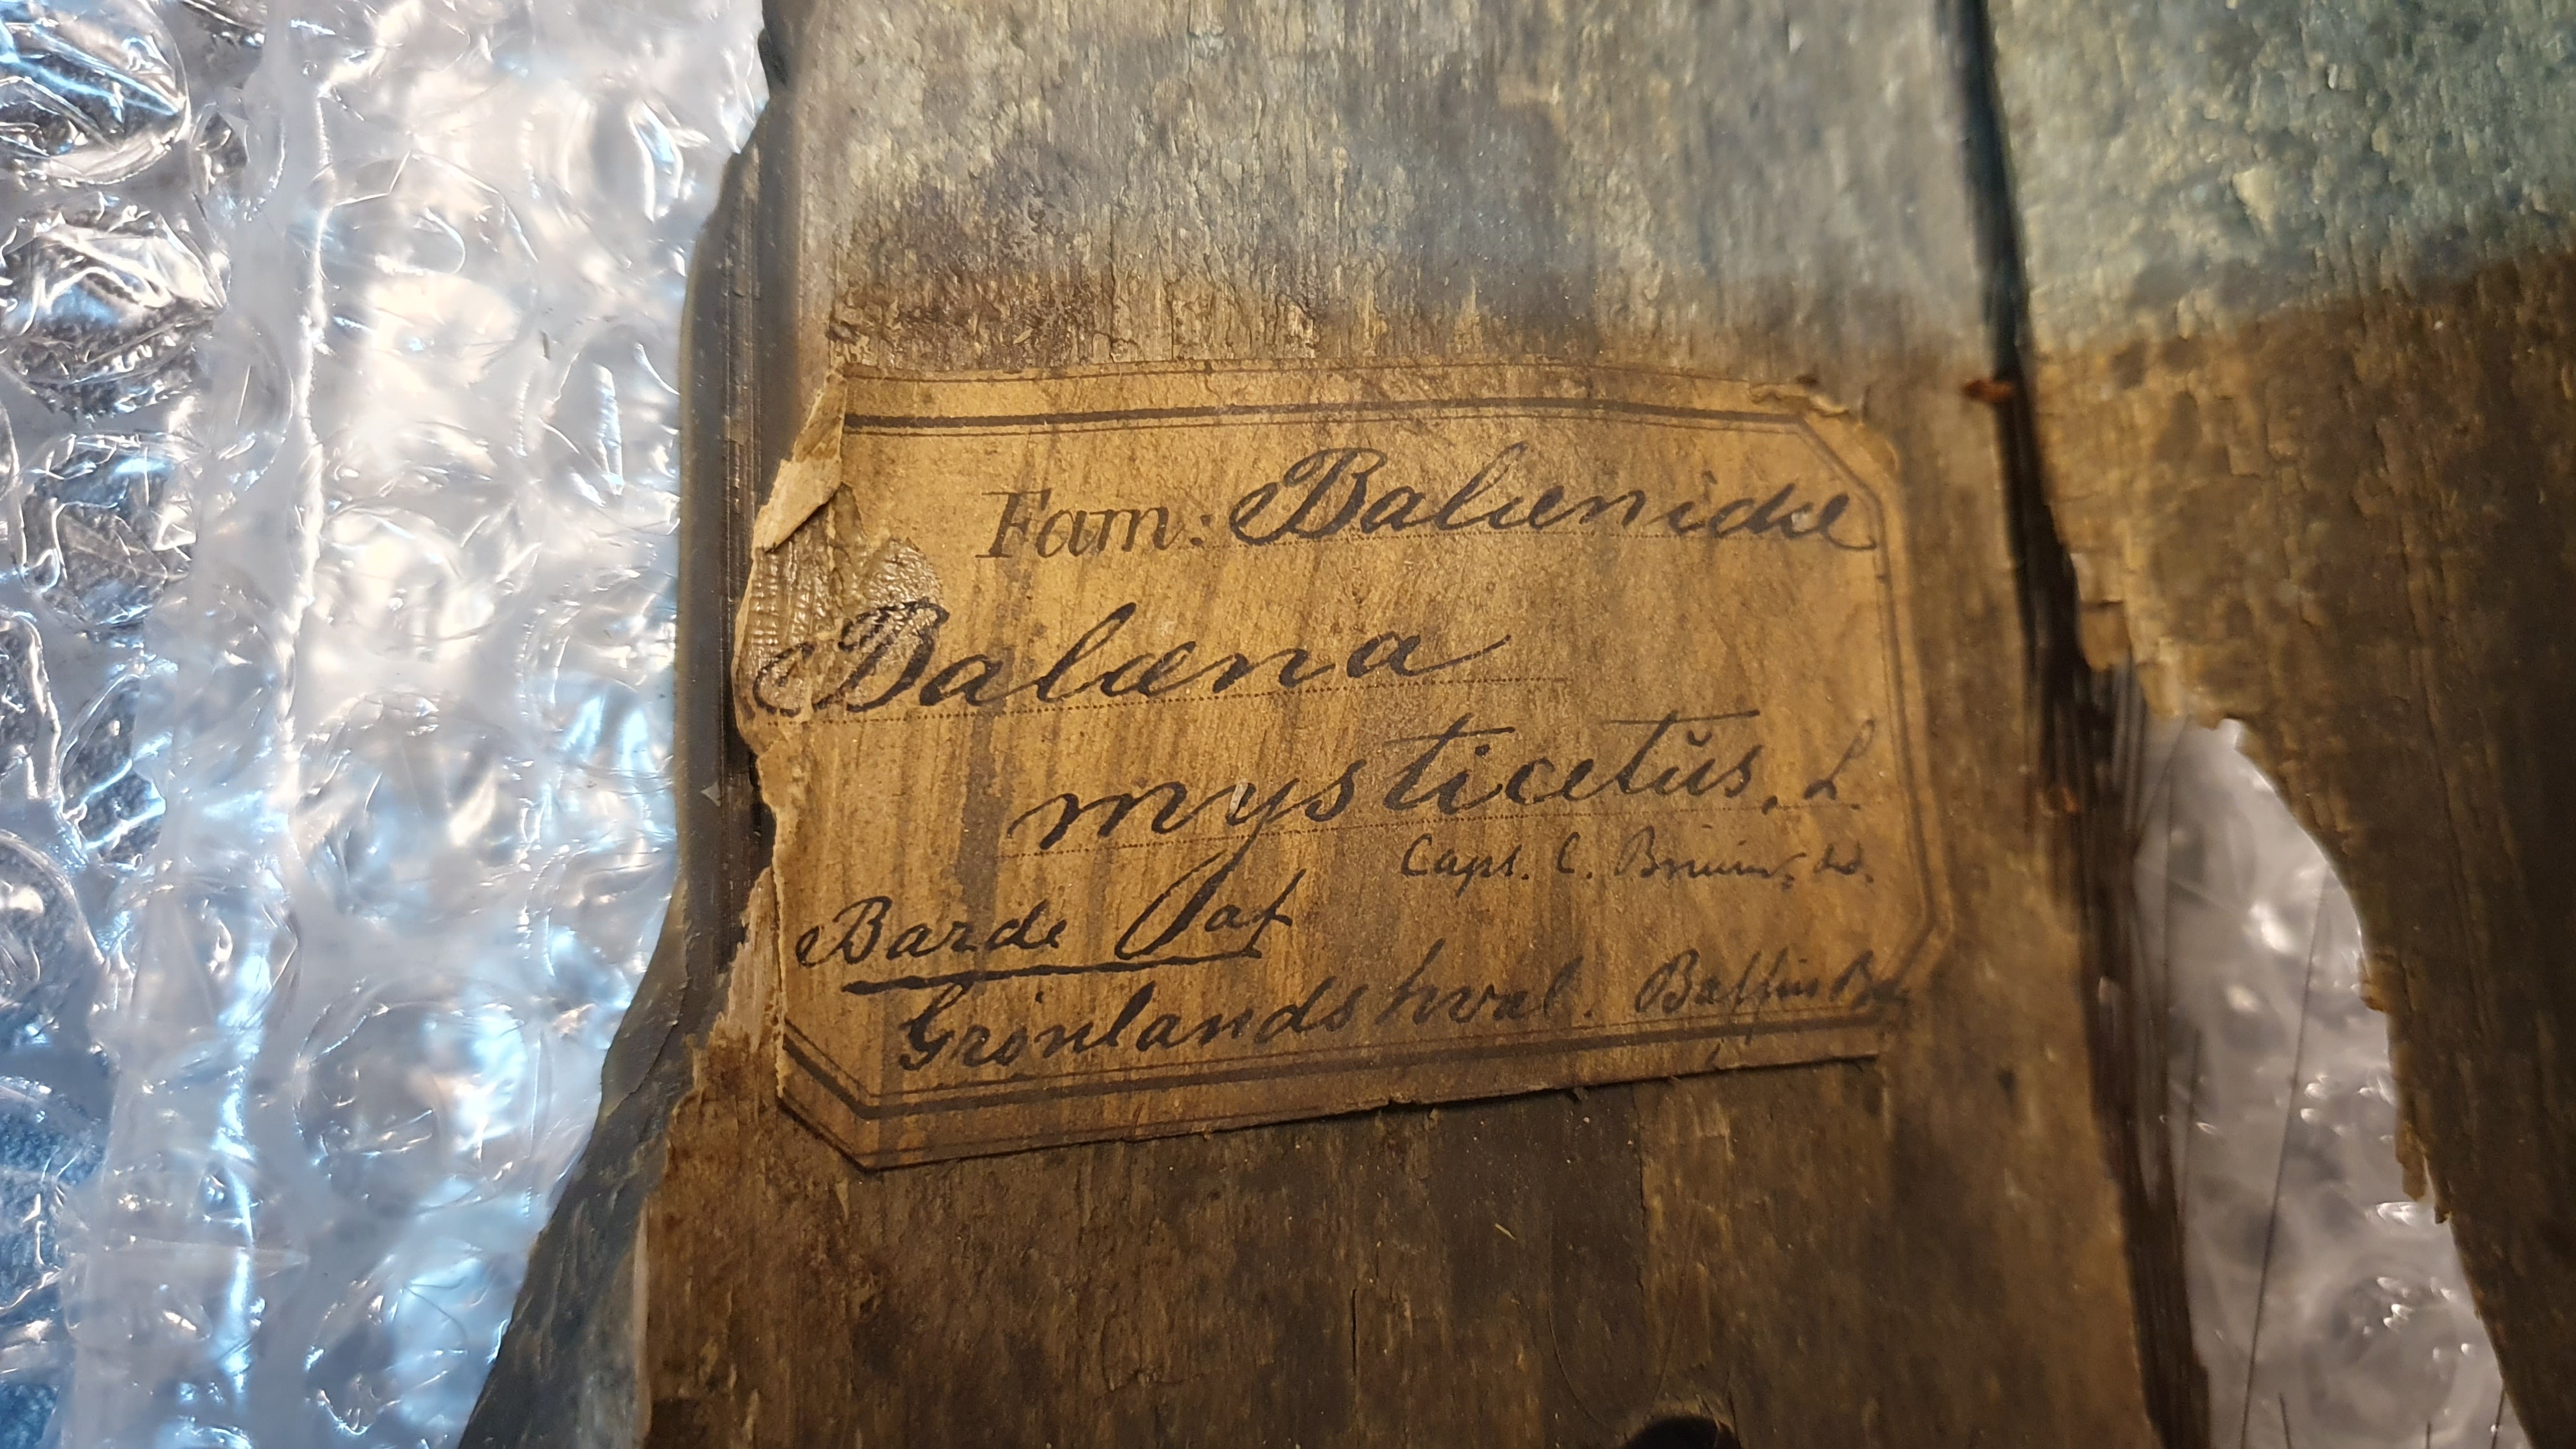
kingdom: Animalia
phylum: Chordata
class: Mammalia
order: Cetacea
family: Balaenidae
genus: Balaena
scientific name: Balaena mysticetus
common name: Bowhead whale
